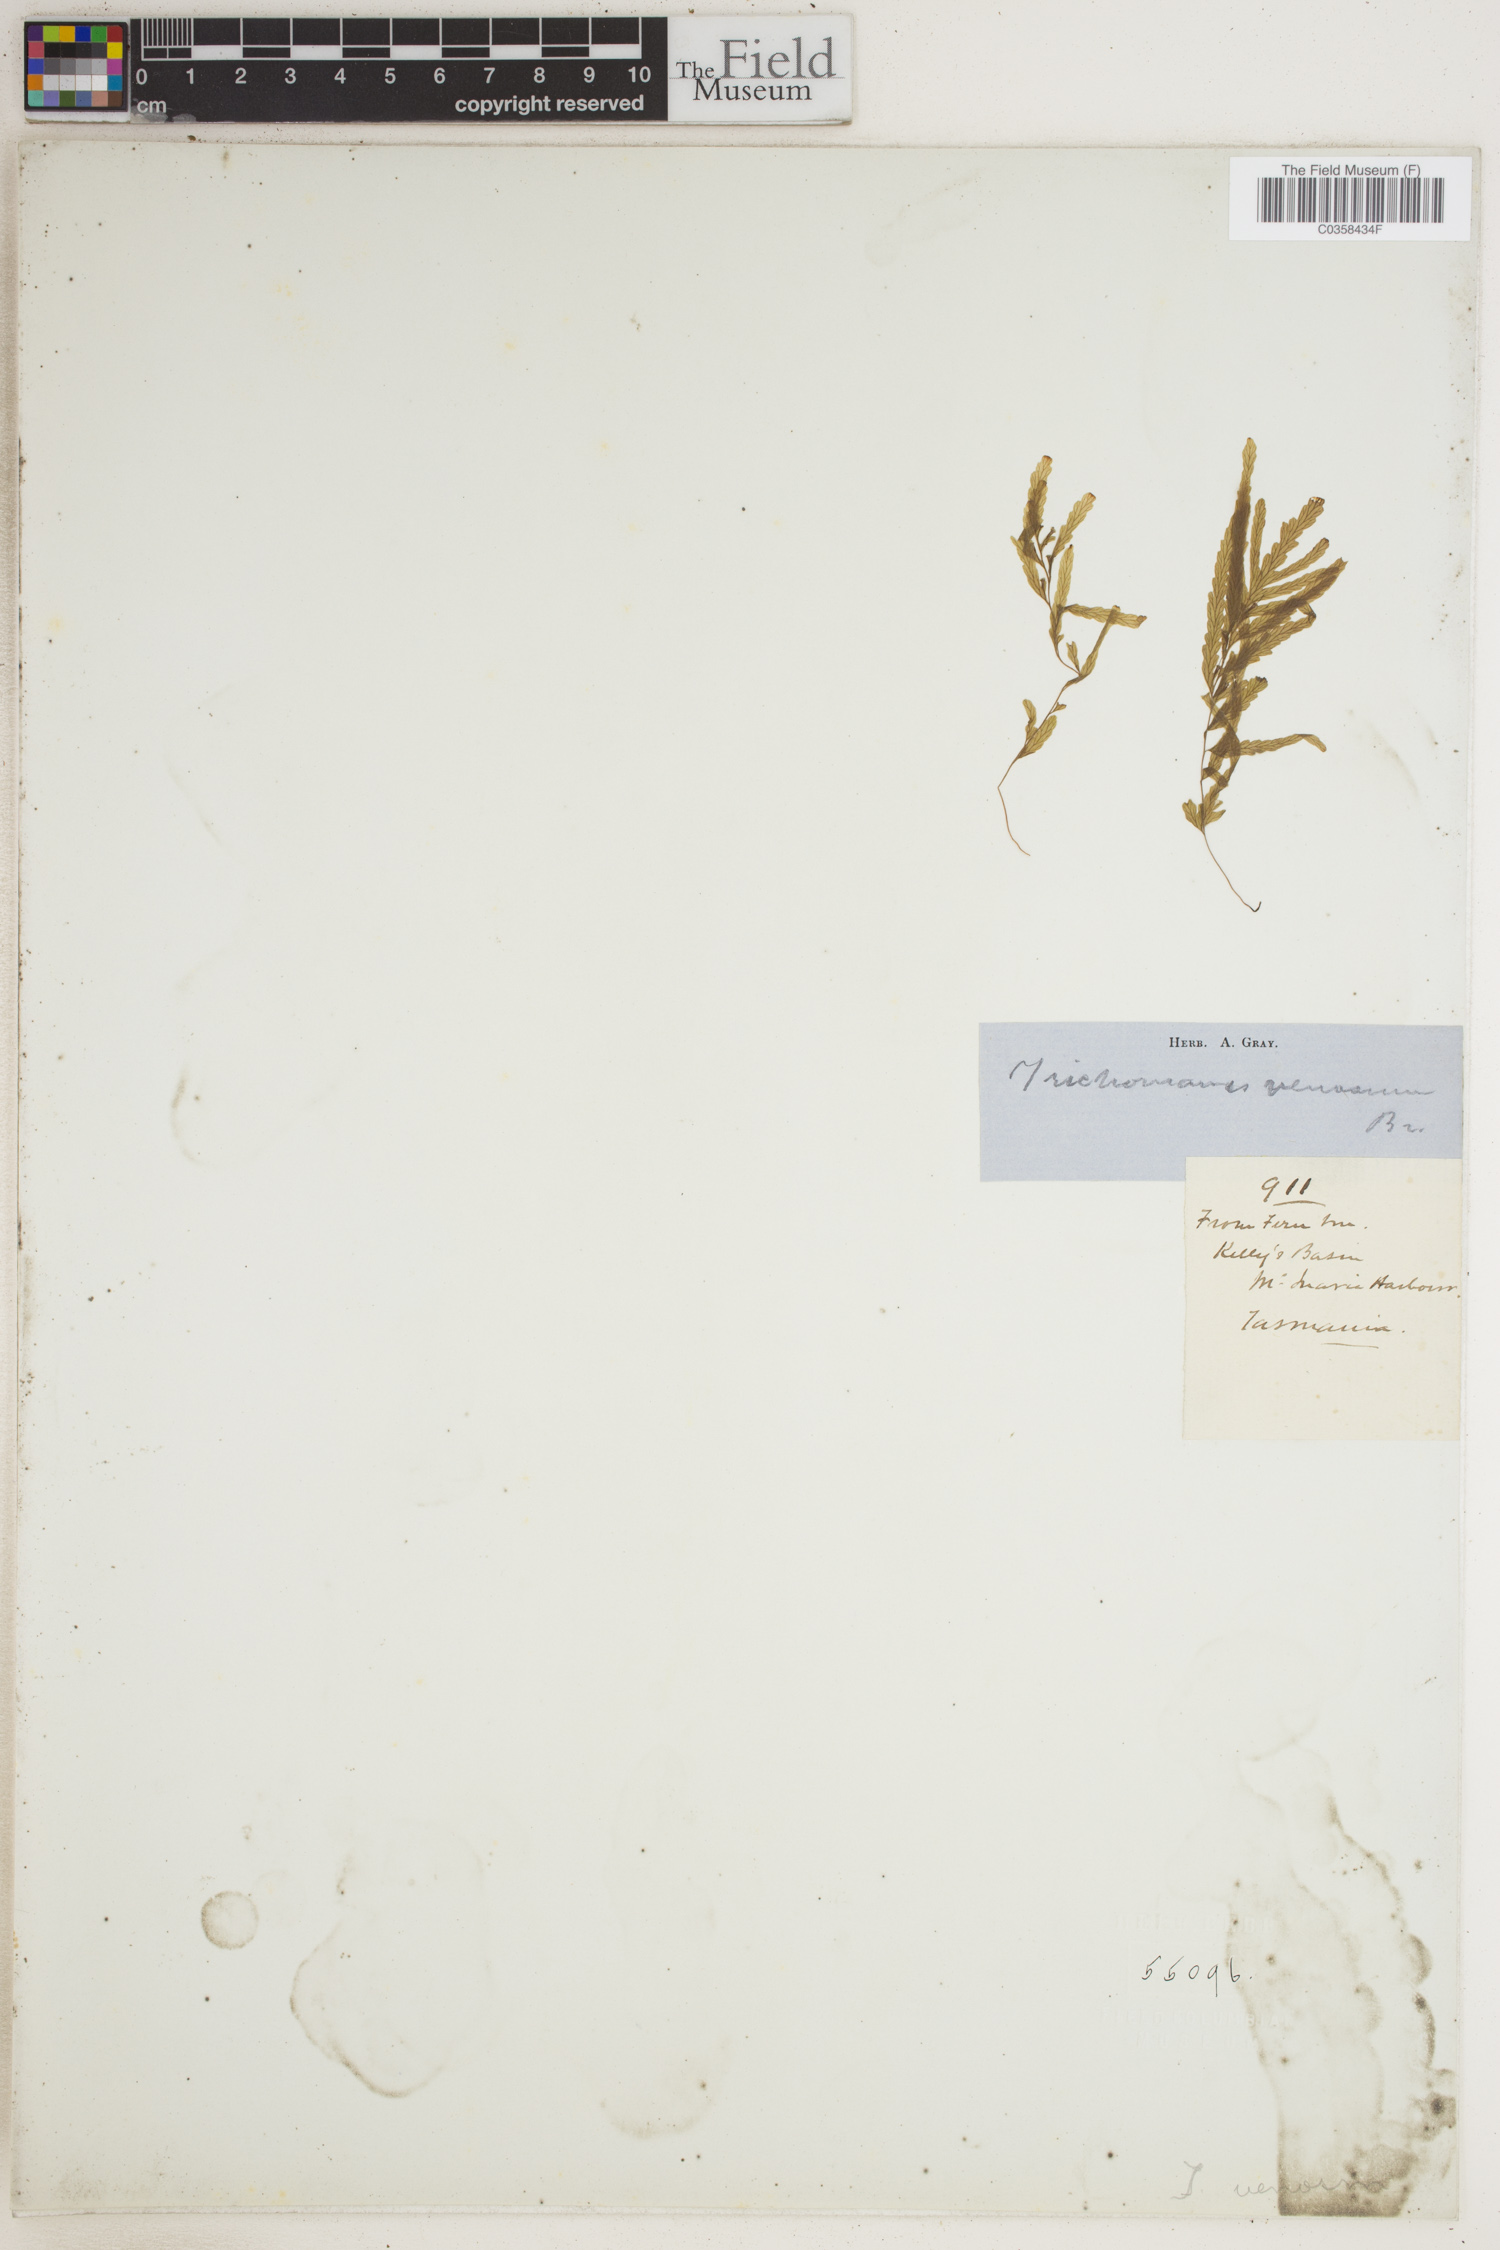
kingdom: Plantae
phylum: Tracheophyta
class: Polypodiopsida
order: Hymenophyllales
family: Hymenophyllaceae
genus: Polyphlebium
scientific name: Polyphlebium venosum
